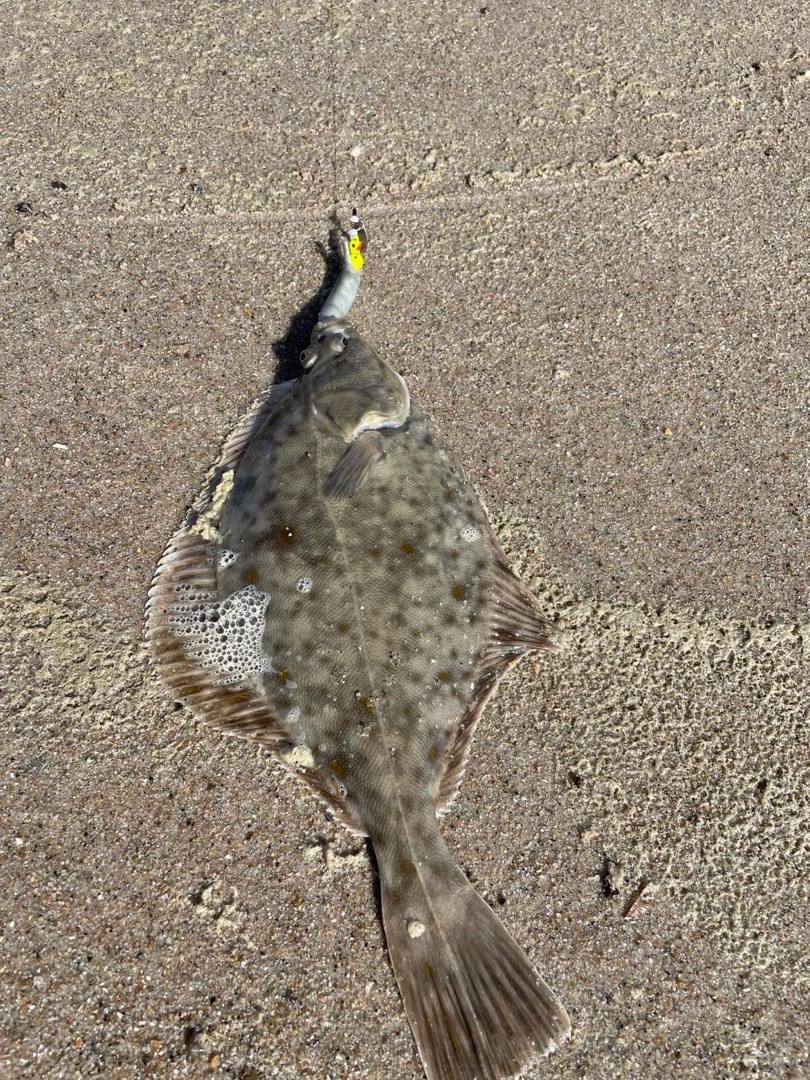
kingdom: Animalia
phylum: Chordata
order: Pleuronectiformes
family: Pleuronectidae
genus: Platichthys
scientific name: Platichthys flesus
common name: Skrubbe
